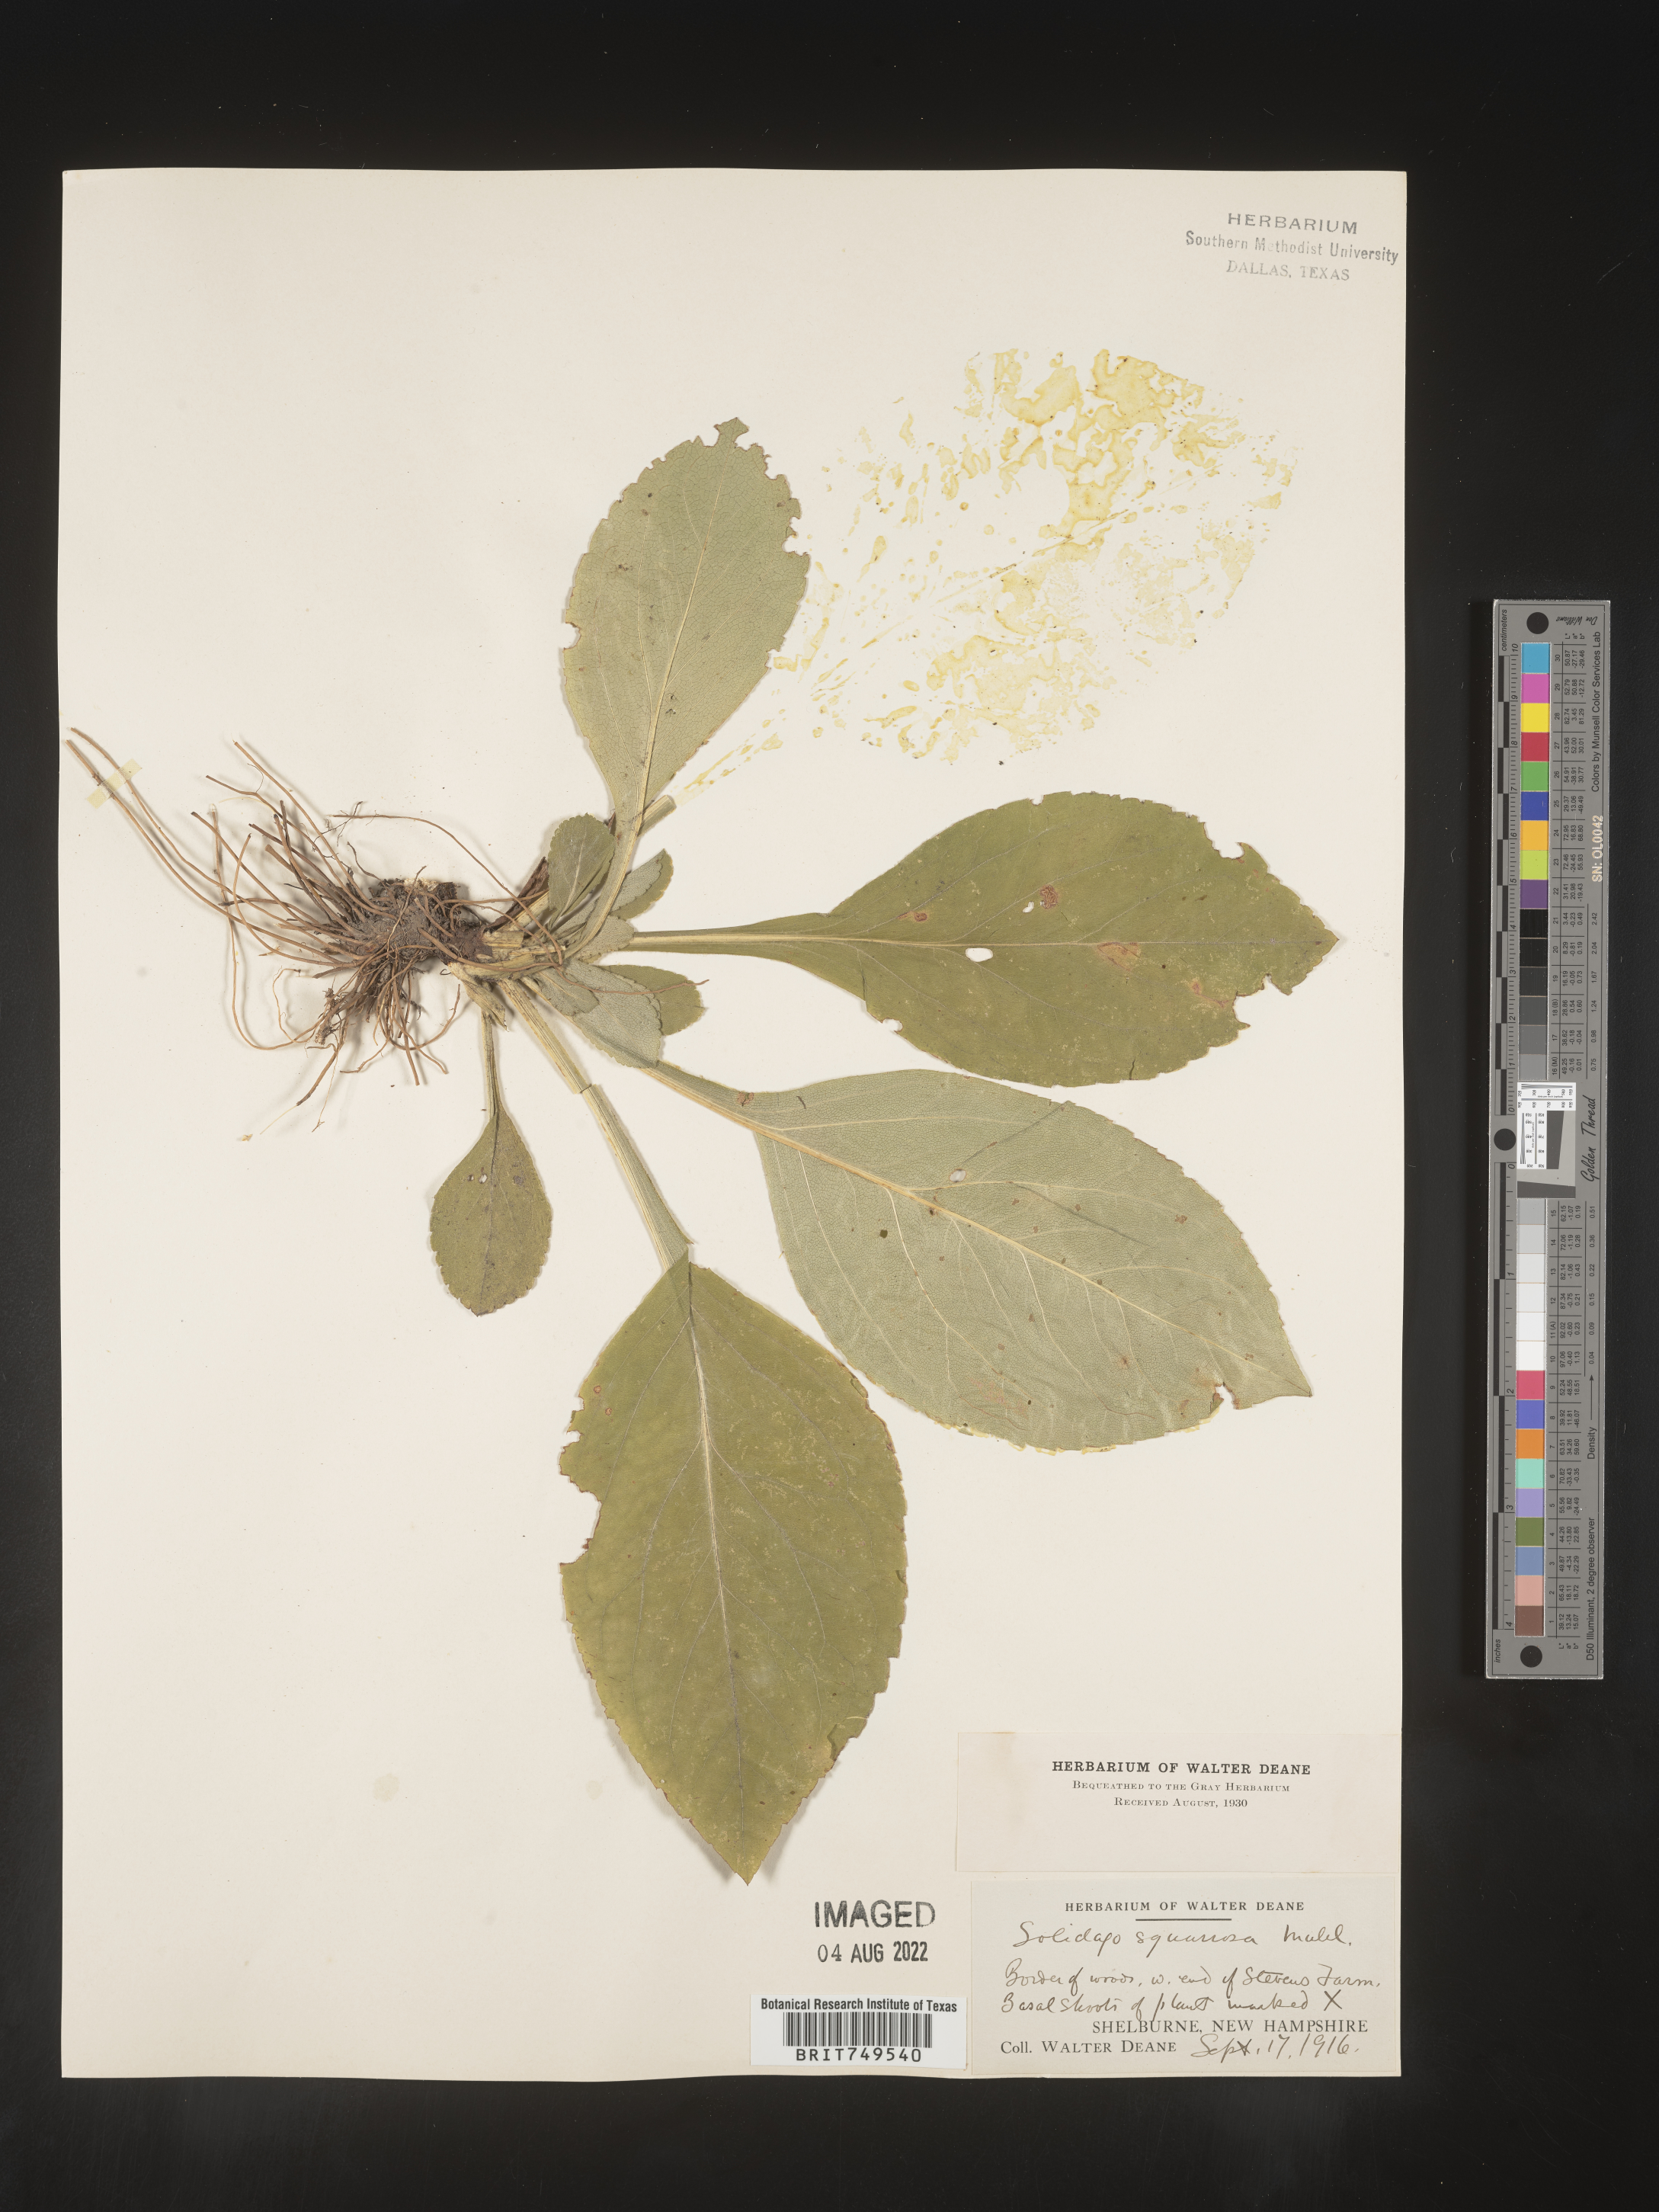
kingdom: Plantae
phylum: Tracheophyta
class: Magnoliopsida
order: Asterales
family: Asteraceae
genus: Solidago
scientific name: Solidago squarrosa
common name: Stout goldenrod
